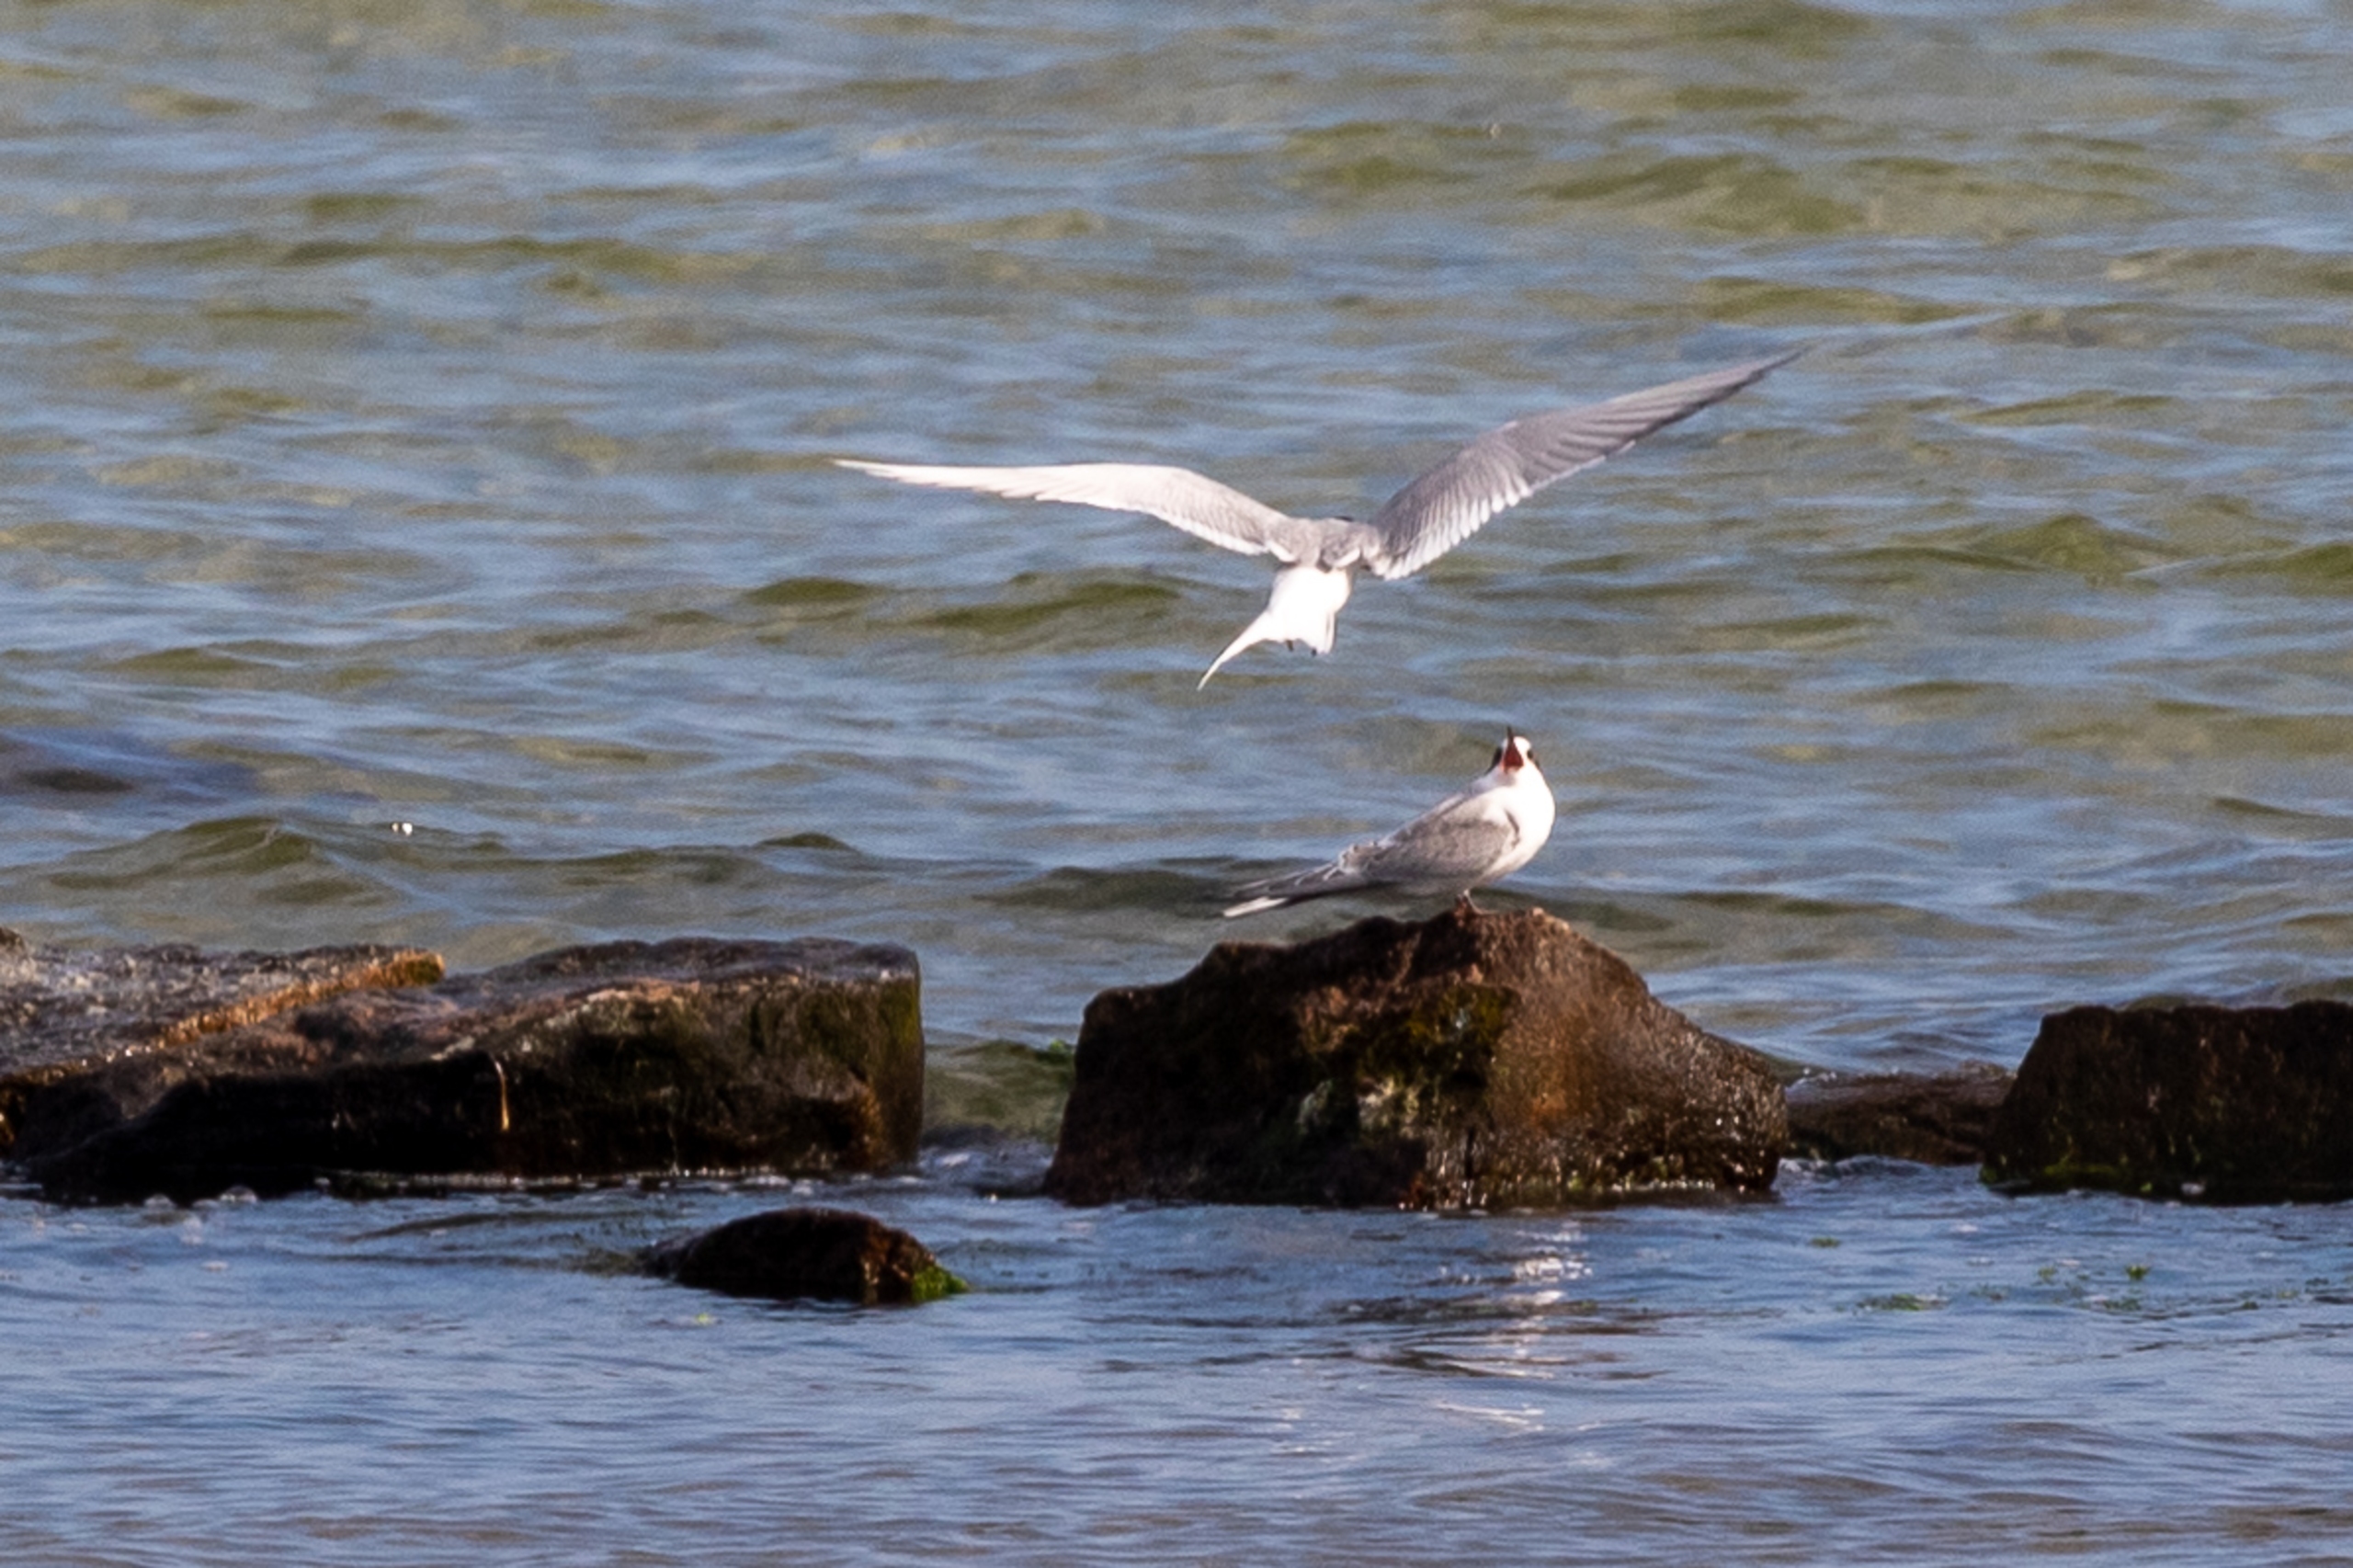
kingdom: Animalia
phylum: Chordata
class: Aves
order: Charadriiformes
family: Laridae
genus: Sterna
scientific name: Sterna paradisaea
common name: Havterne
